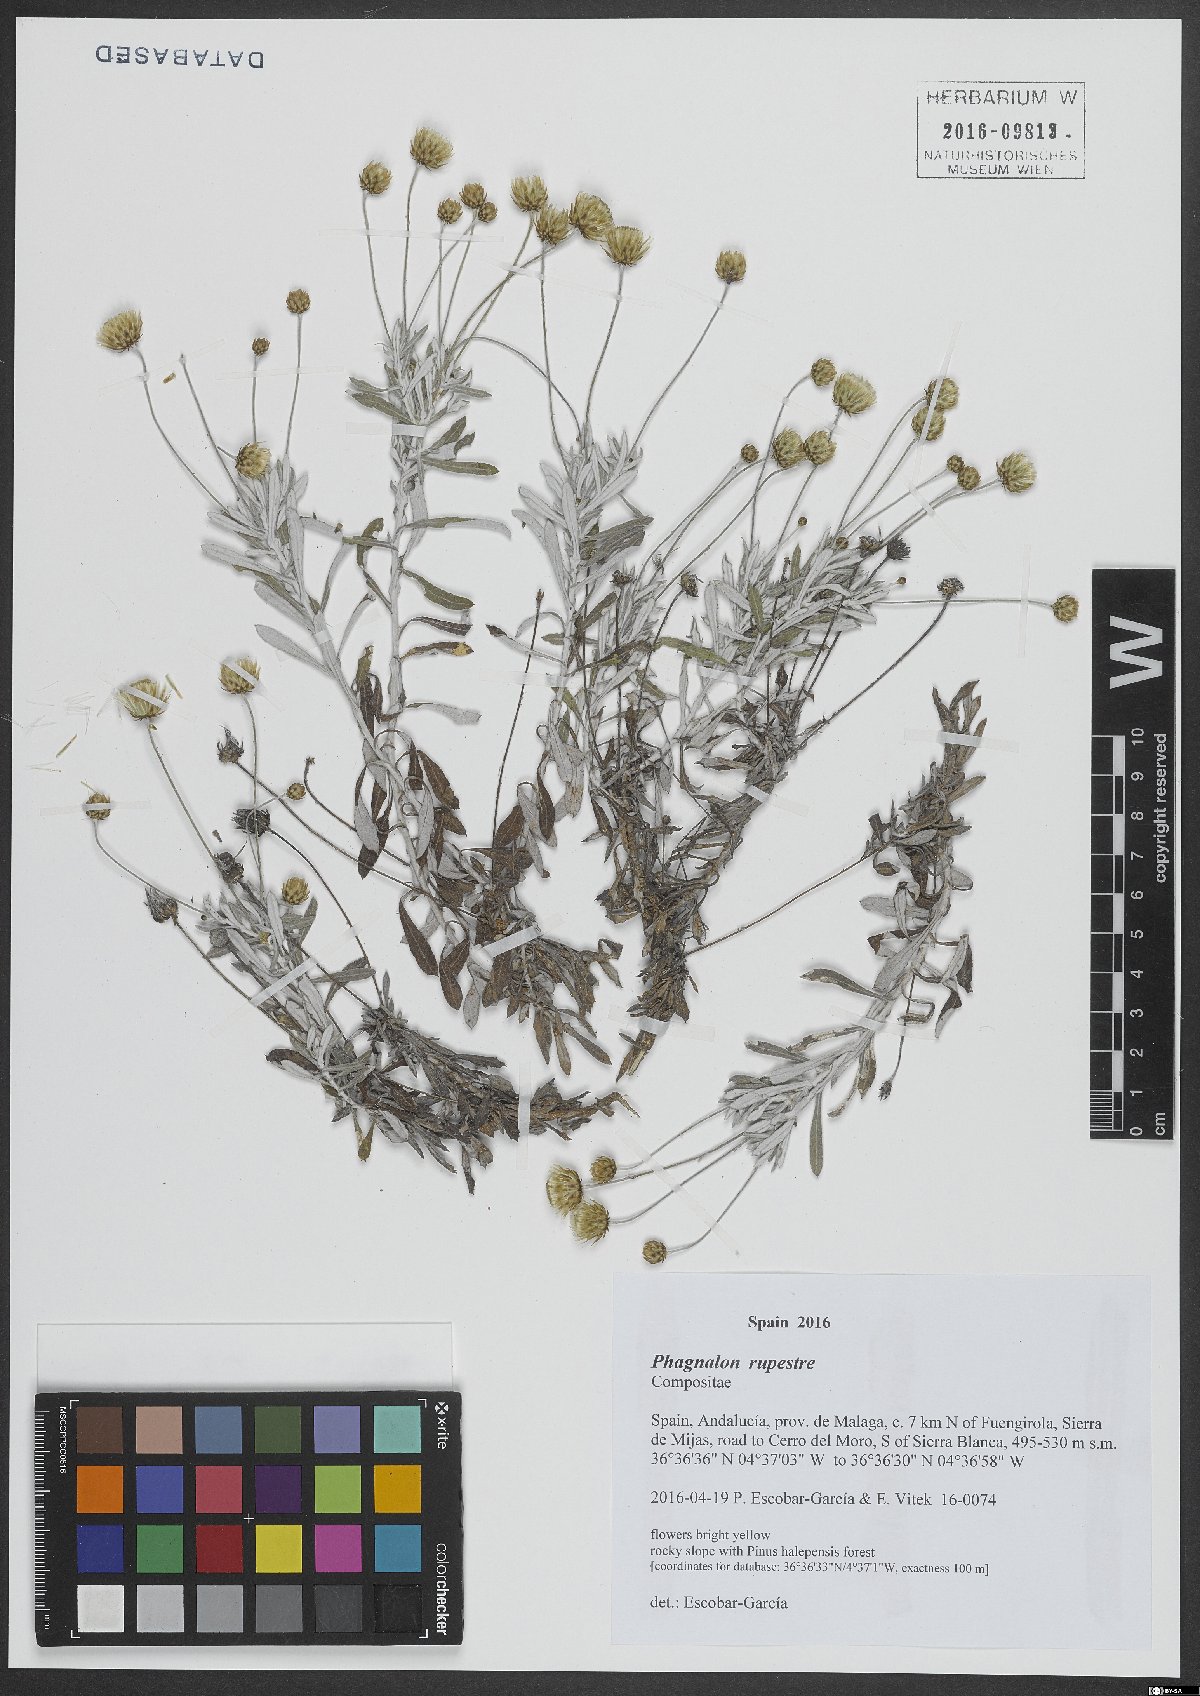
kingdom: Plantae
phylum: Tracheophyta
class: Magnoliopsida
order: Asterales
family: Asteraceae
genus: Phagnalon
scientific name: Phagnalon rupestre
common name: Rock phagnalon
